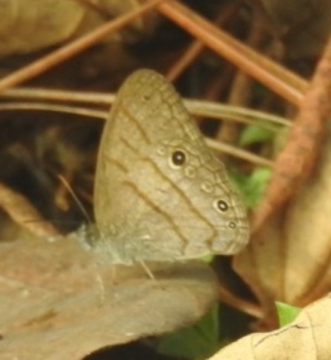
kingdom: Animalia
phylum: Arthropoda
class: Insecta
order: Lepidoptera
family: Nymphalidae
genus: Hermeuptychia
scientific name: Hermeuptychia hermes
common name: Hermes Satyr
